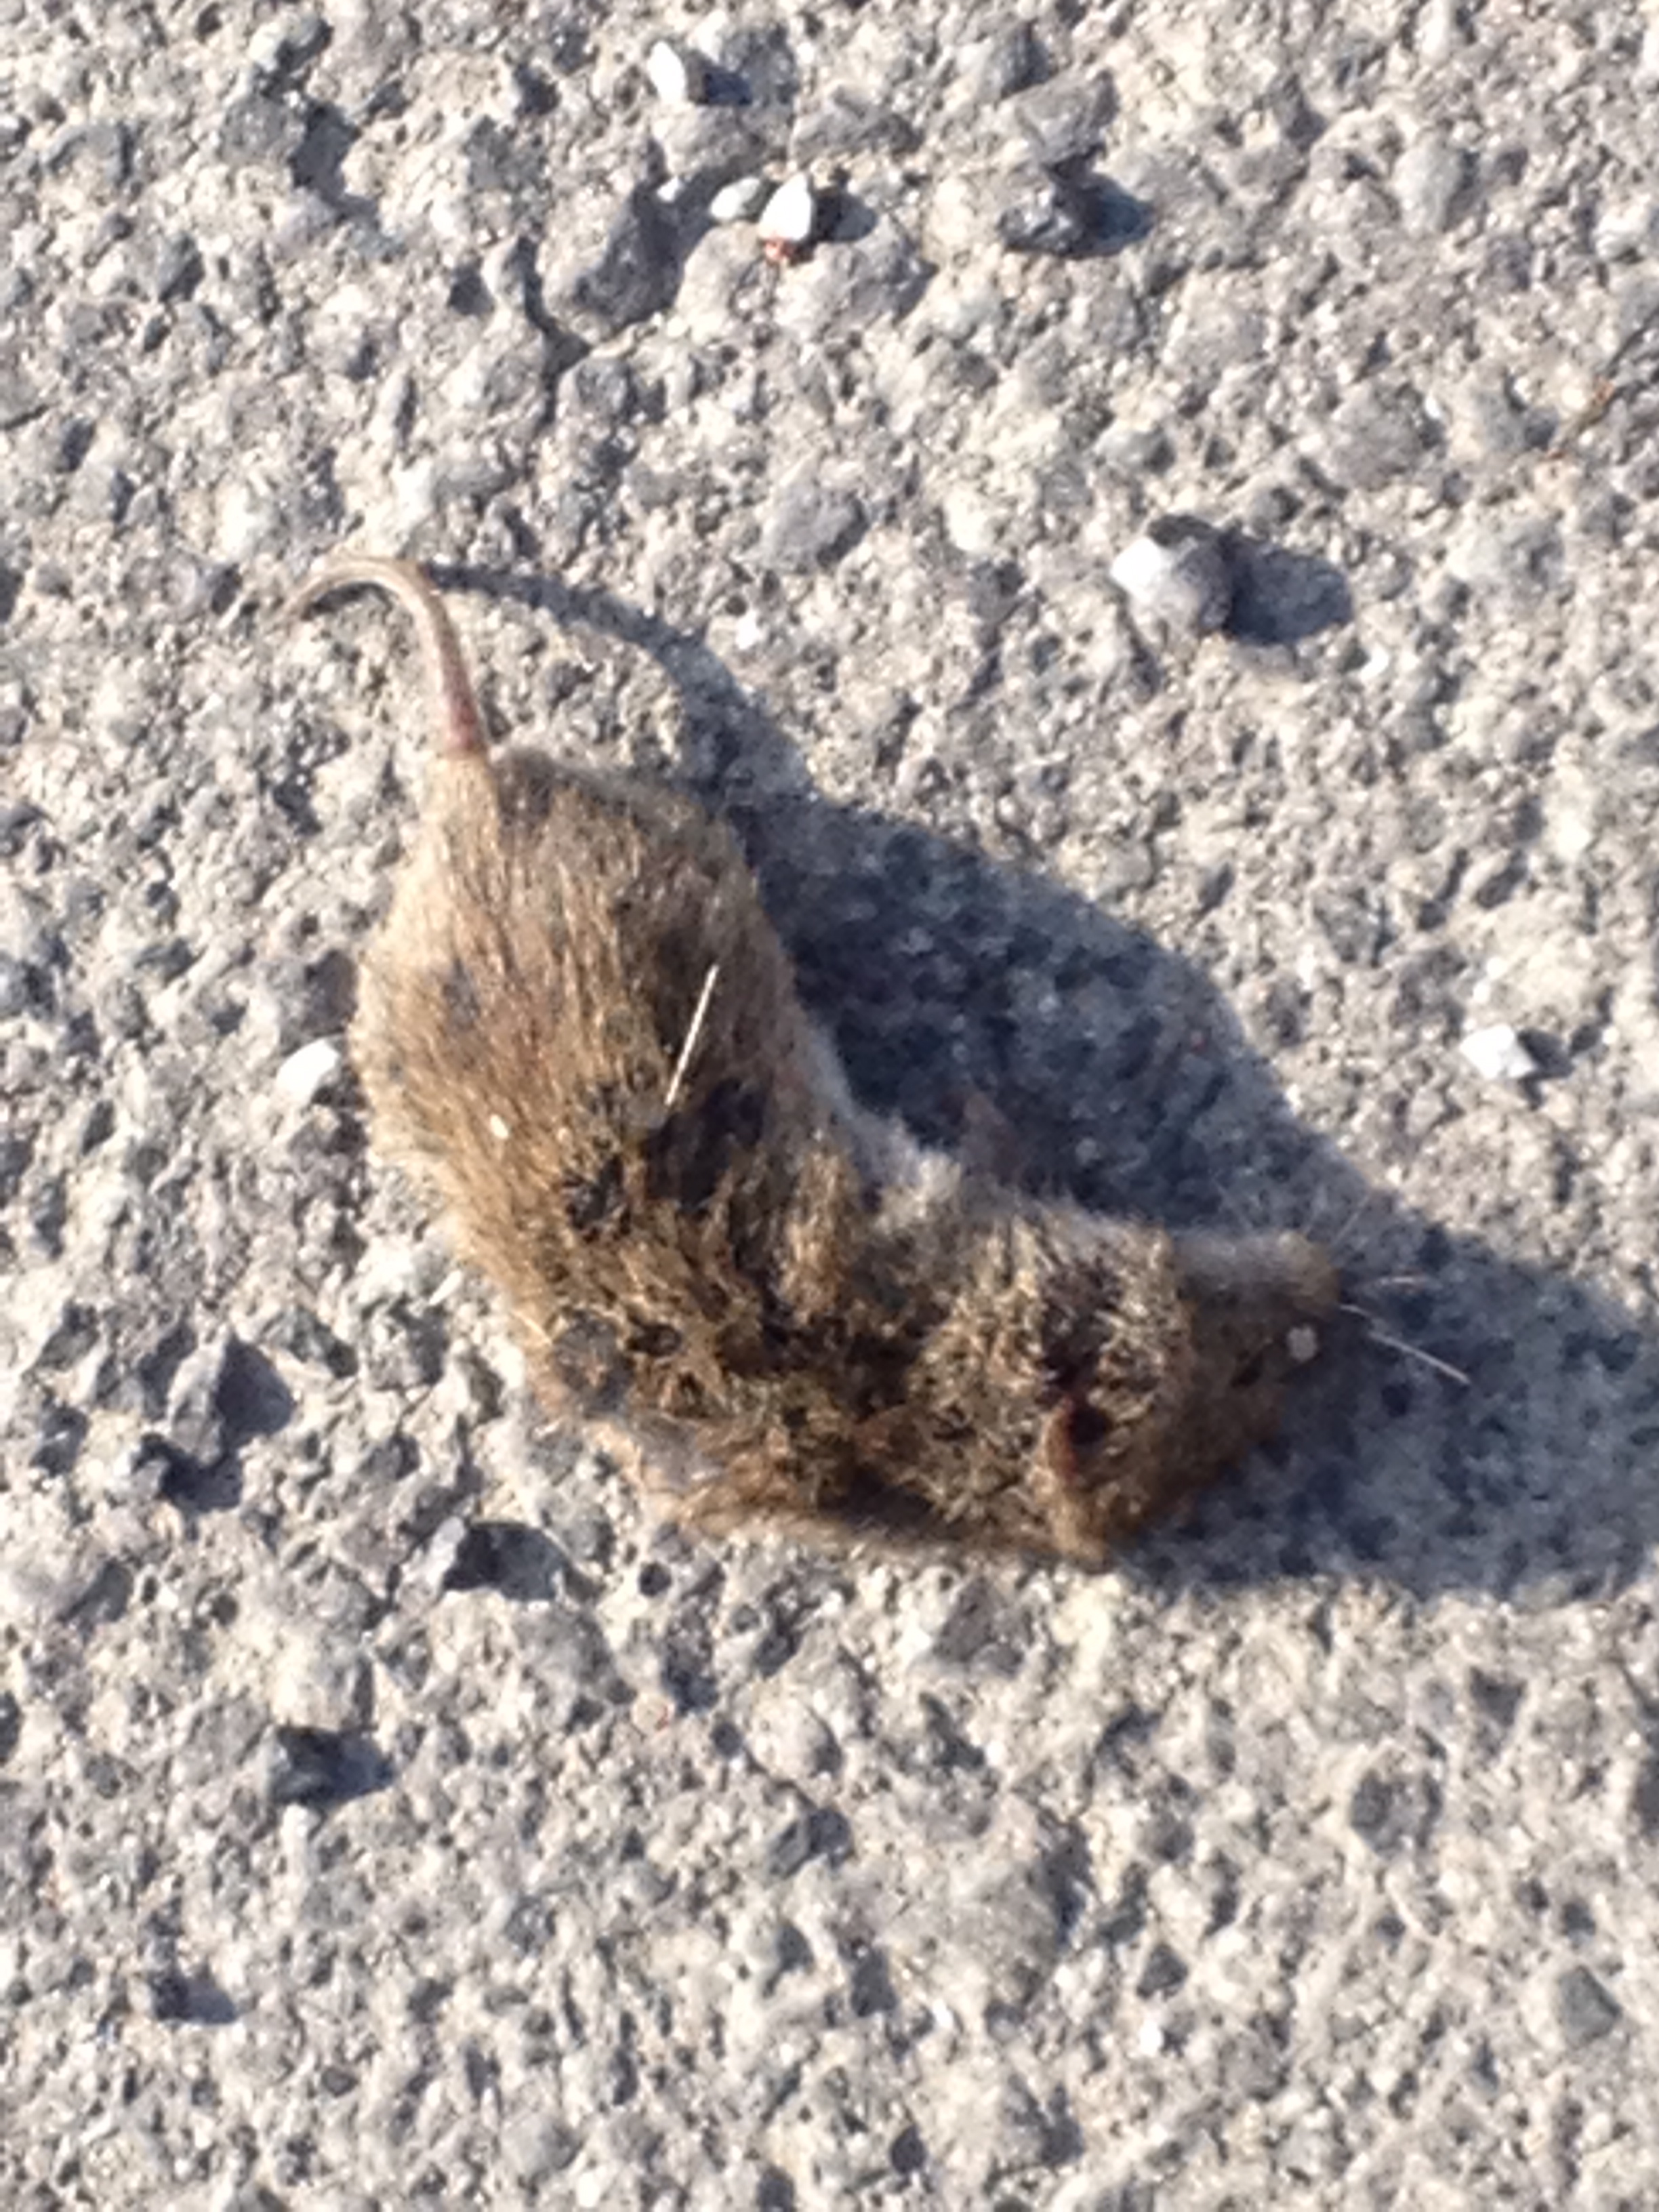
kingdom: Animalia
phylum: Chordata
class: Mammalia
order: Rodentia
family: Cricetidae
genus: Microtus
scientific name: Microtus
